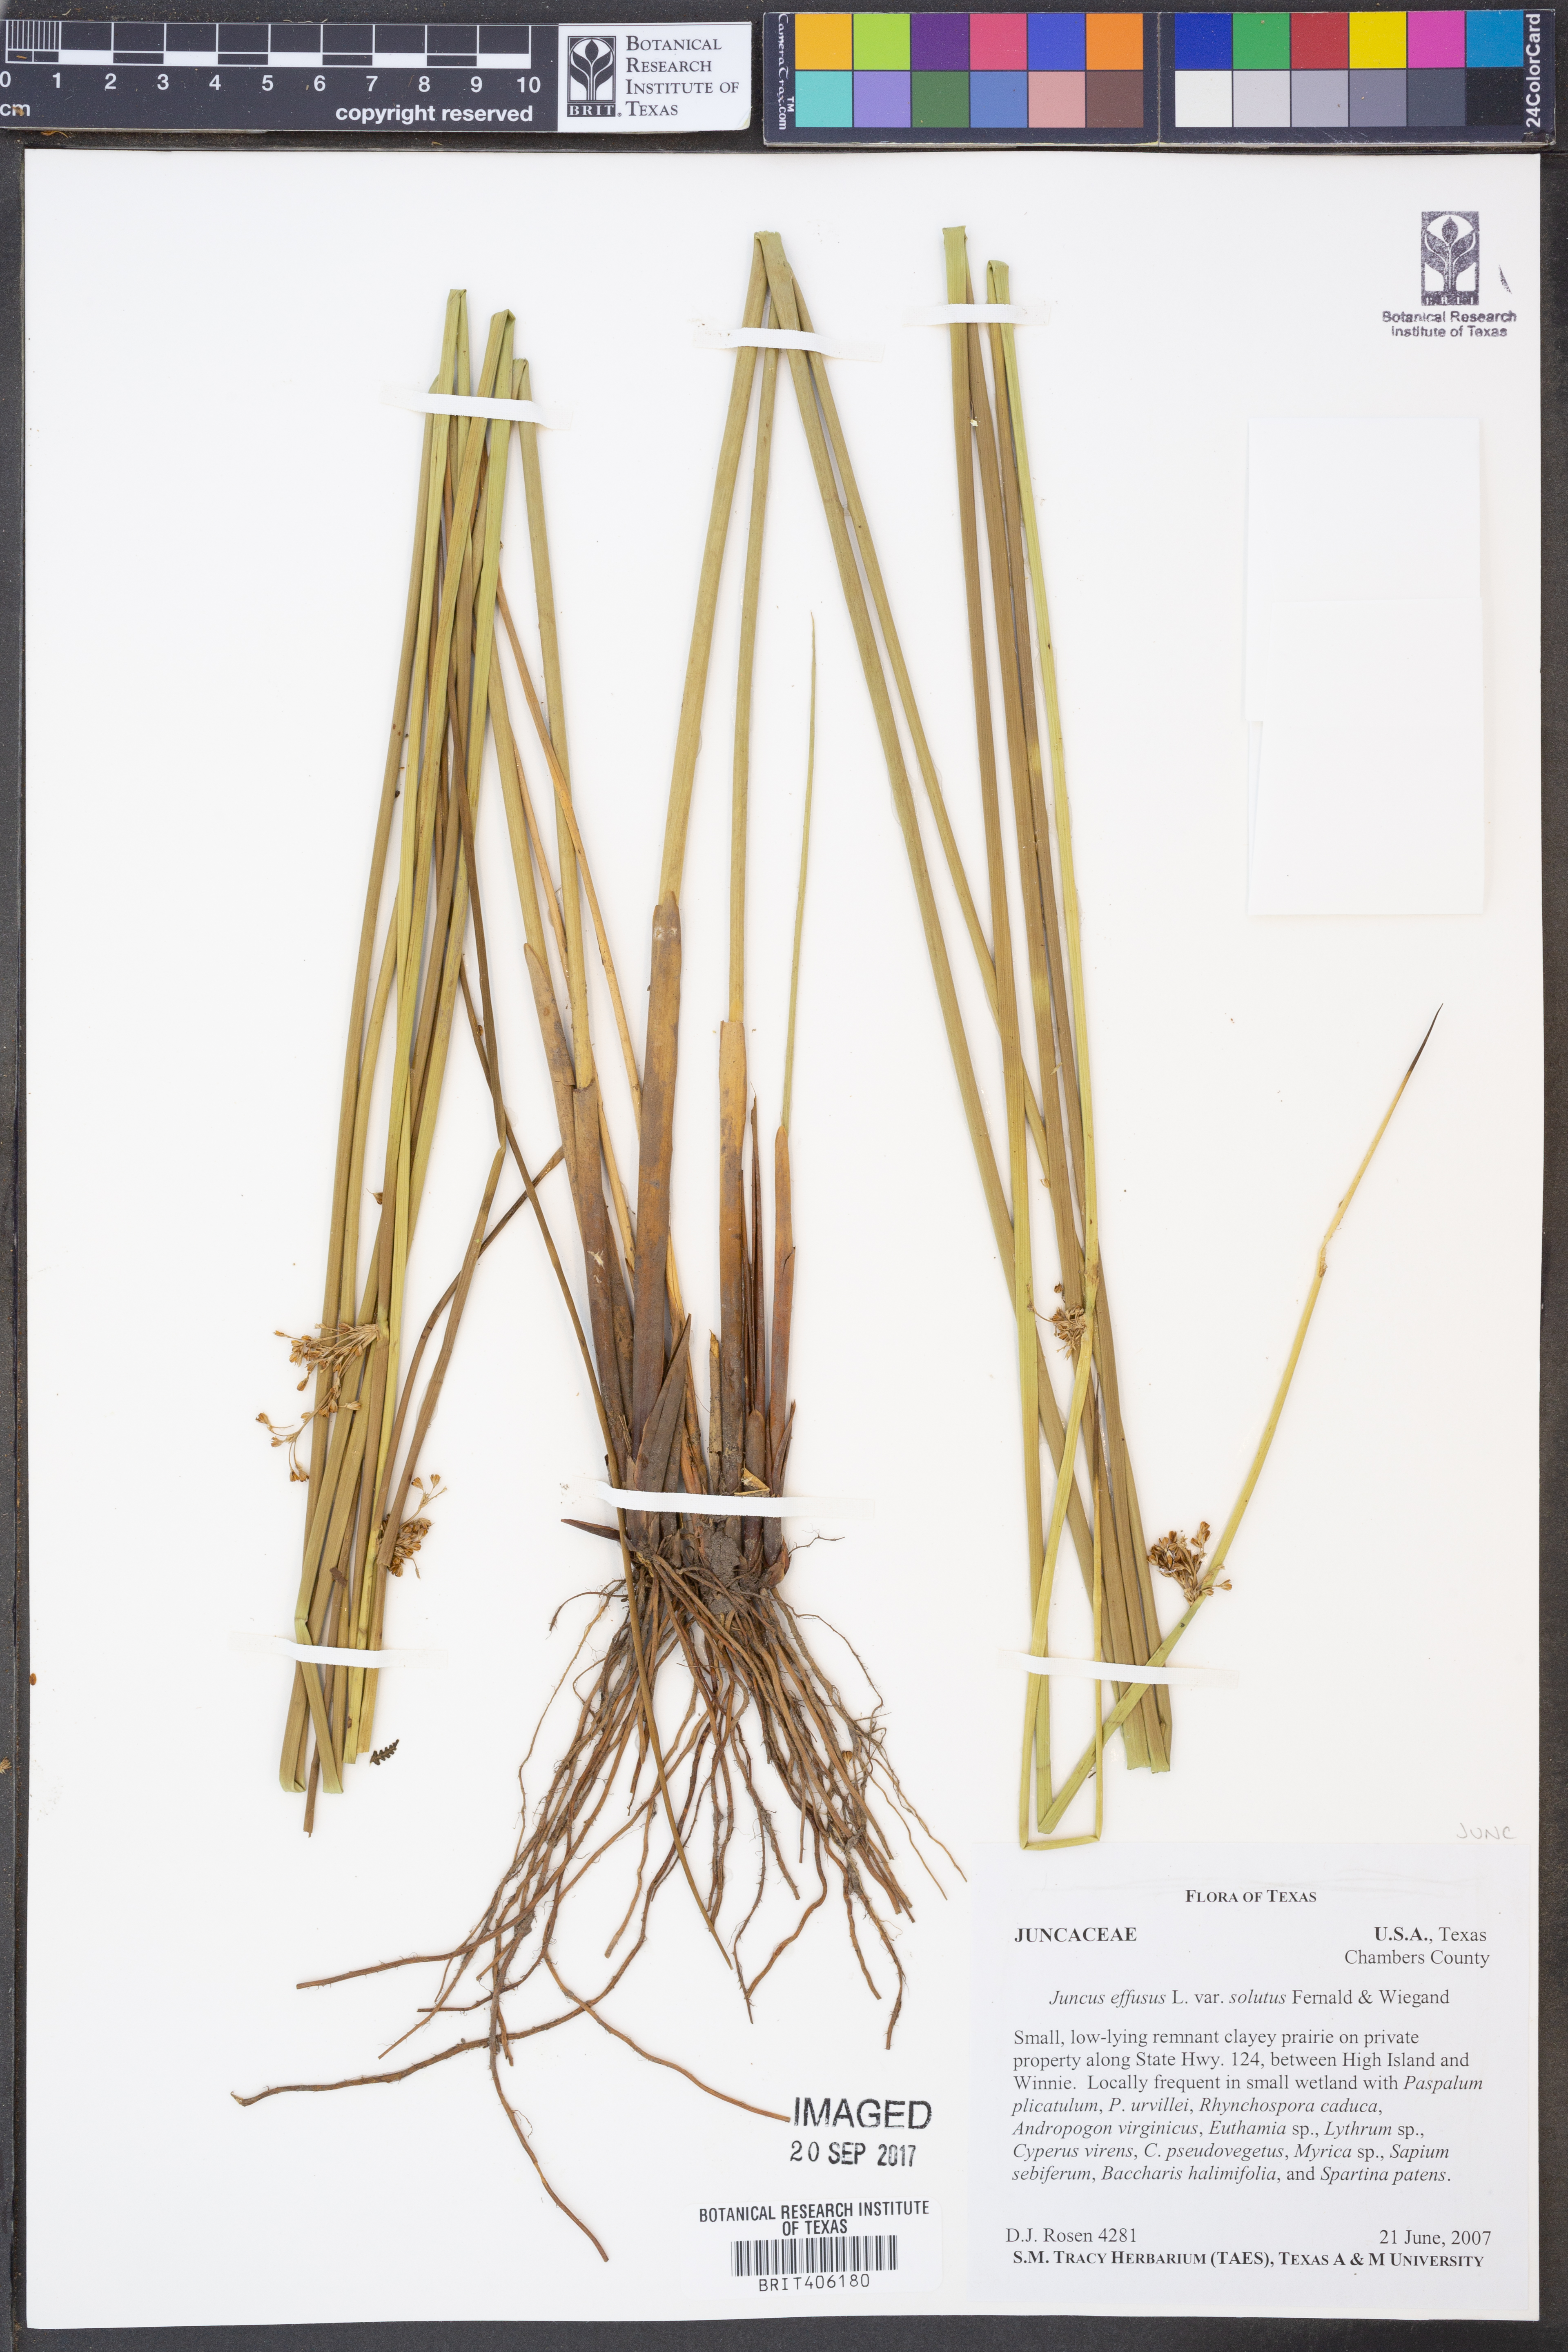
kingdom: Plantae
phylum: Tracheophyta
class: Liliopsida
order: Poales
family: Juncaceae
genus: Juncus
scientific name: Juncus effusus
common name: Soft rush
